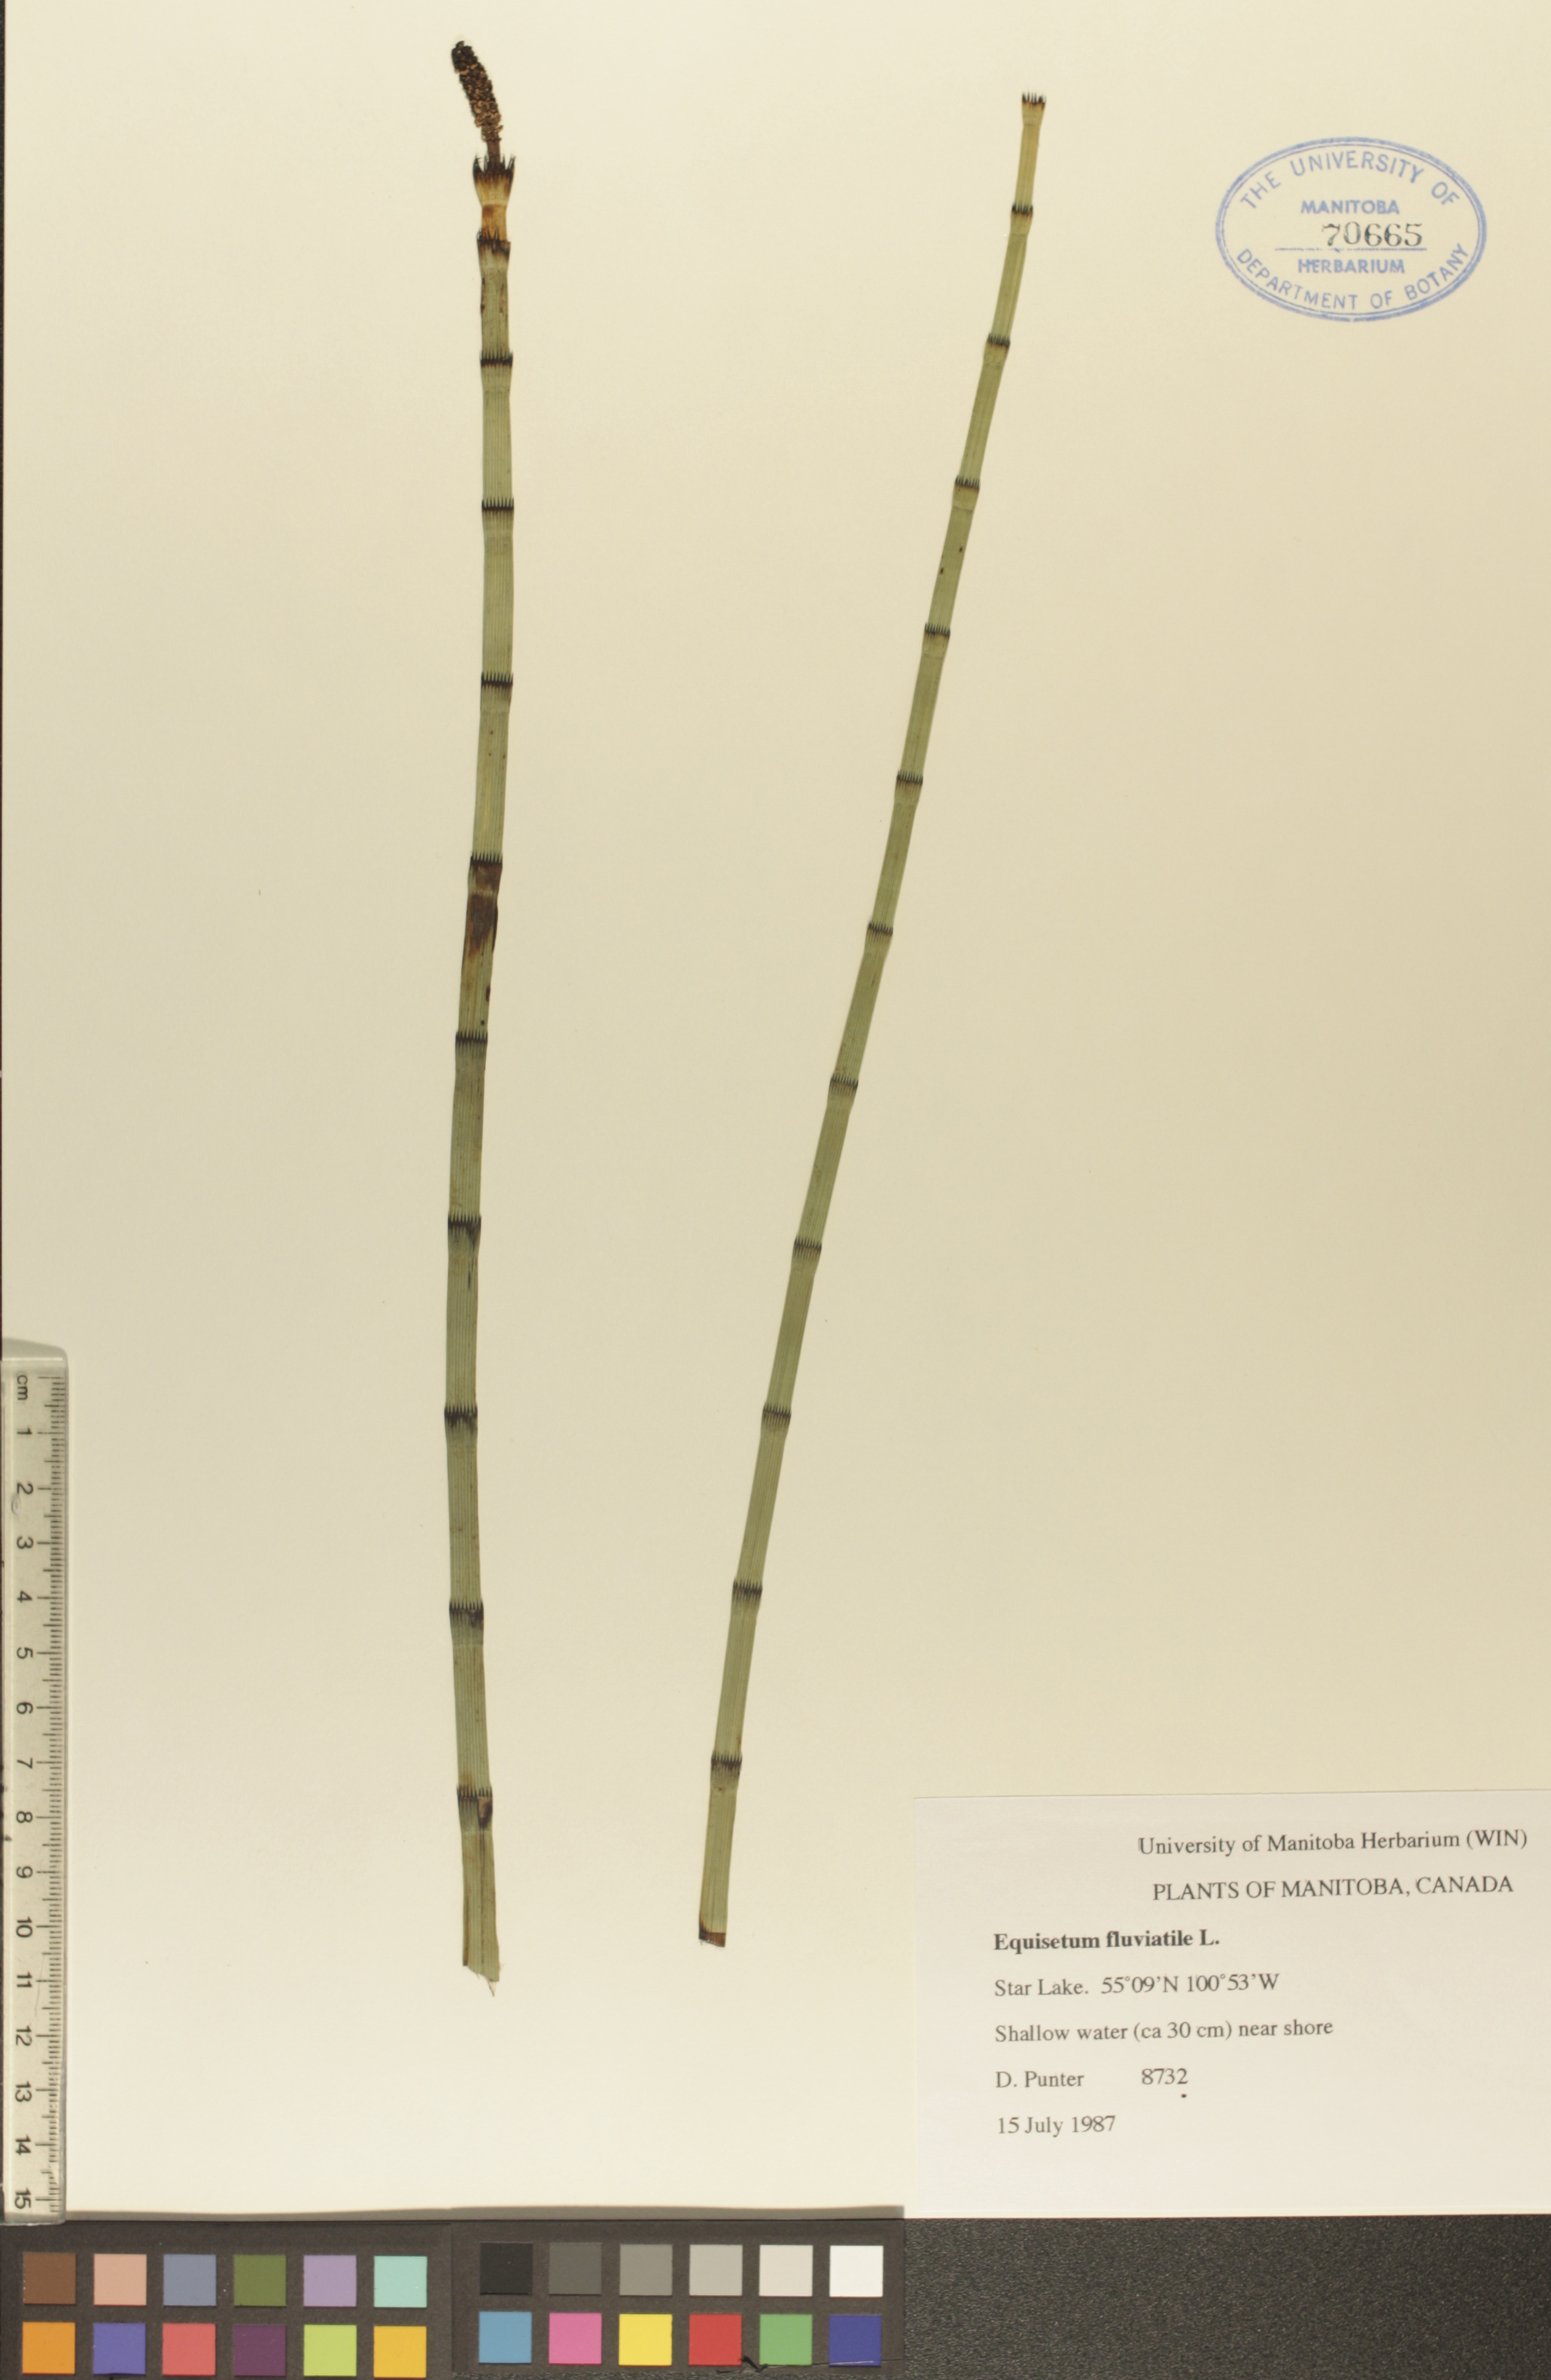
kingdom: Plantae
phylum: Tracheophyta
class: Polypodiopsida
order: Equisetales
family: Equisetaceae
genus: Equisetum
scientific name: Equisetum fluviatile
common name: Water horsetail
